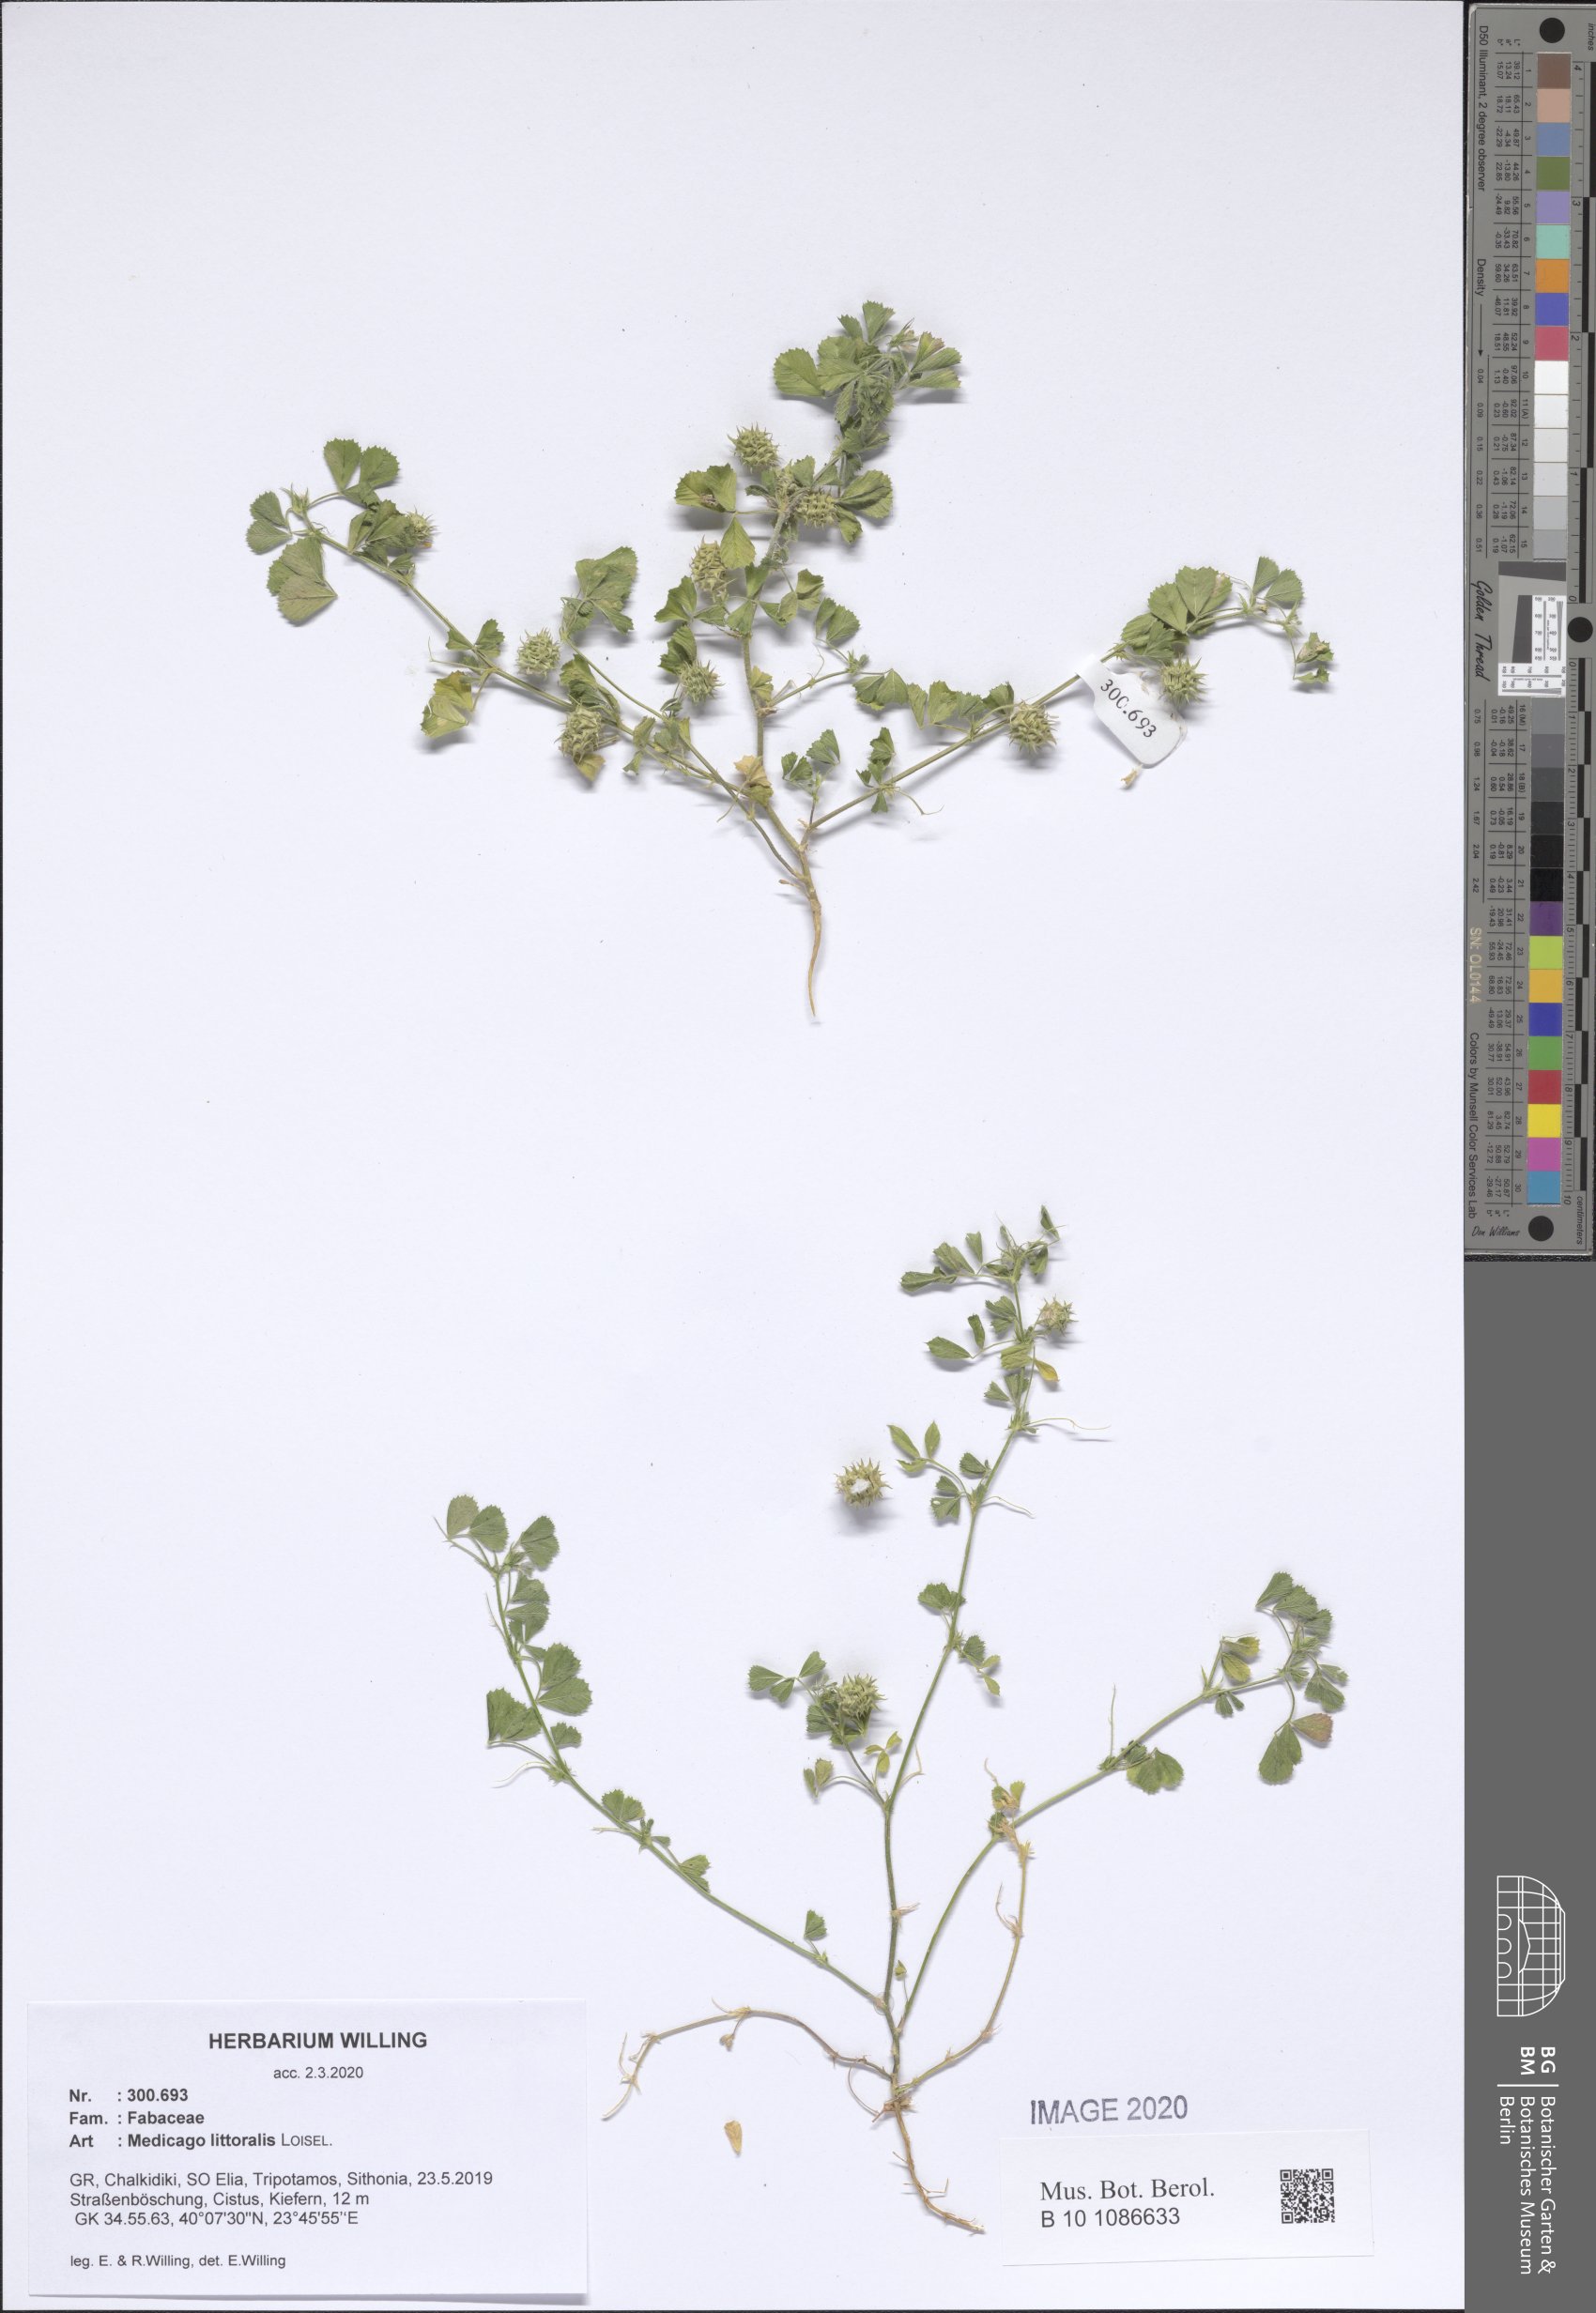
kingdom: Plantae
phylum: Tracheophyta
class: Magnoliopsida
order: Fabales
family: Fabaceae
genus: Medicago
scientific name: Medicago littoralis
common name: Shore medick
